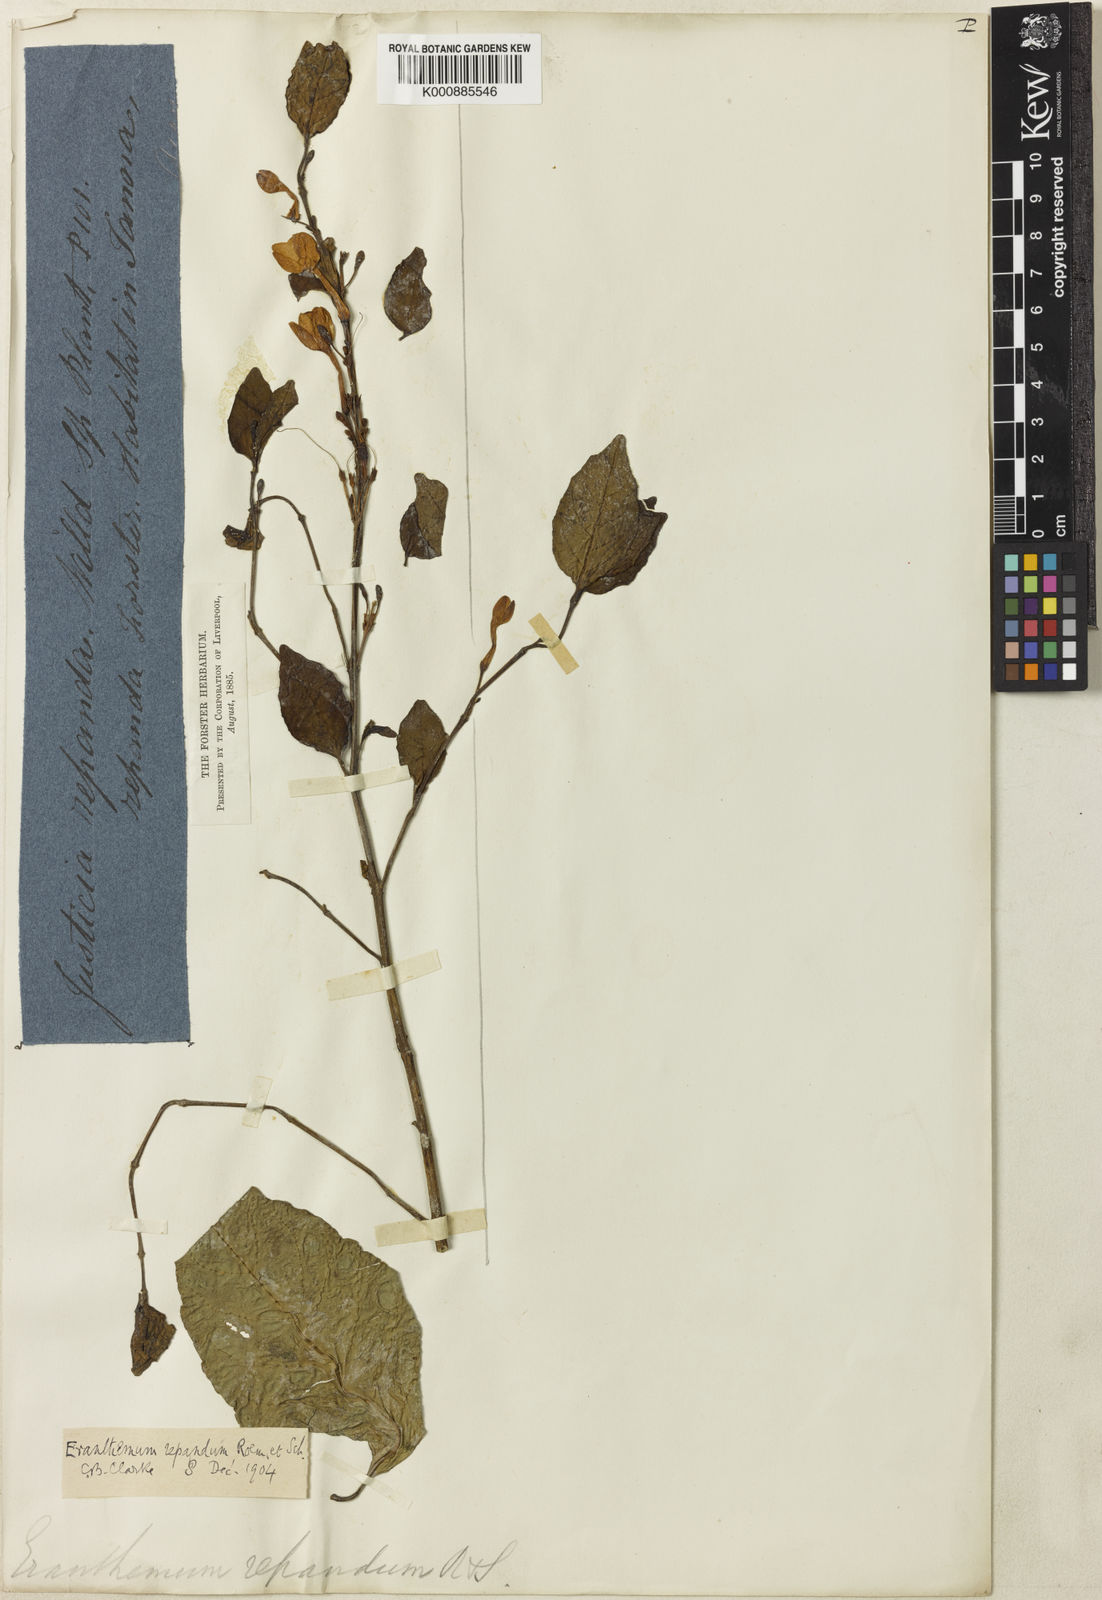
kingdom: Plantae
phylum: Tracheophyta
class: Magnoliopsida
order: Lamiales
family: Acanthaceae
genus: Pseuderanthemum
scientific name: Pseuderanthemum repandum
